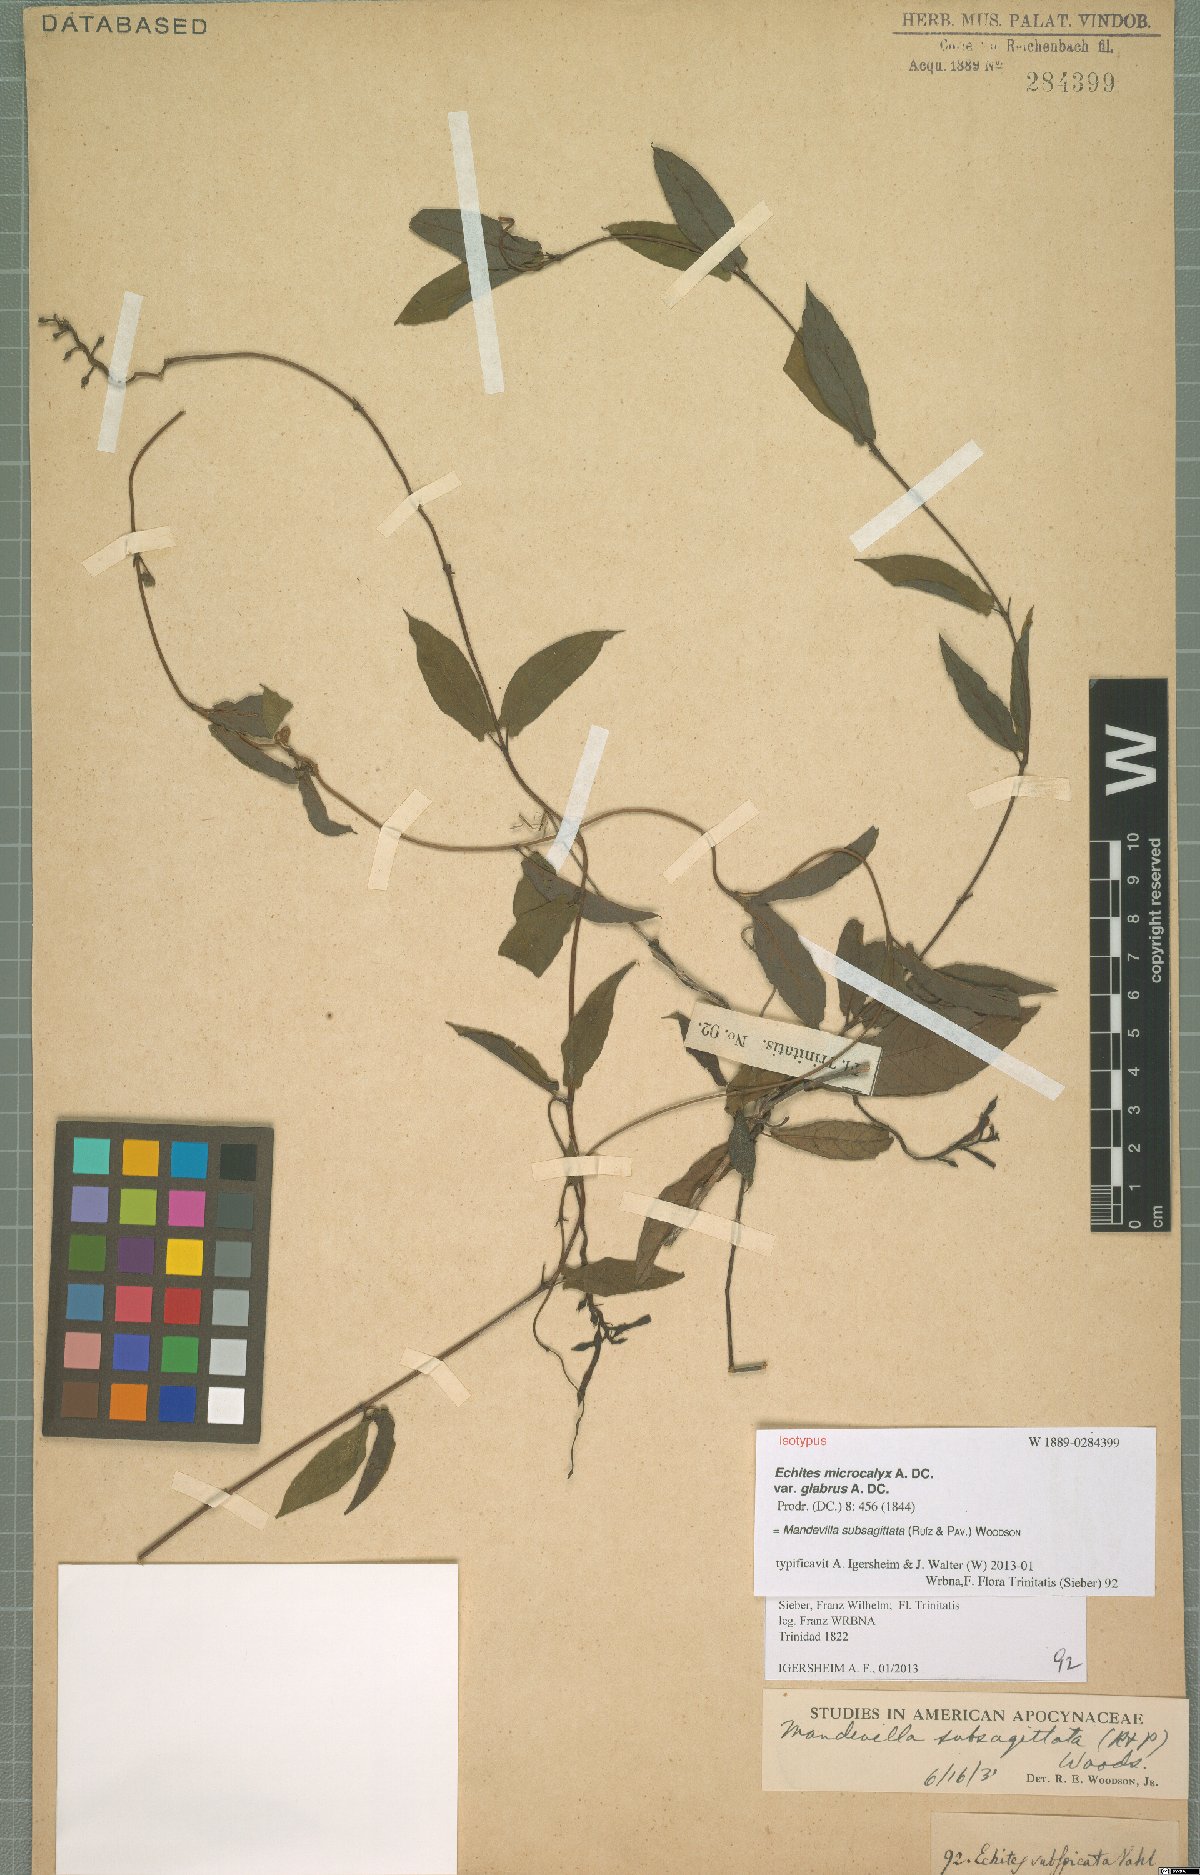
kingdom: Plantae
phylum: Tracheophyta
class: Magnoliopsida
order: Gentianales
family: Apocynaceae
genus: Mandevilla
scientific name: Mandevilla subsagittata
